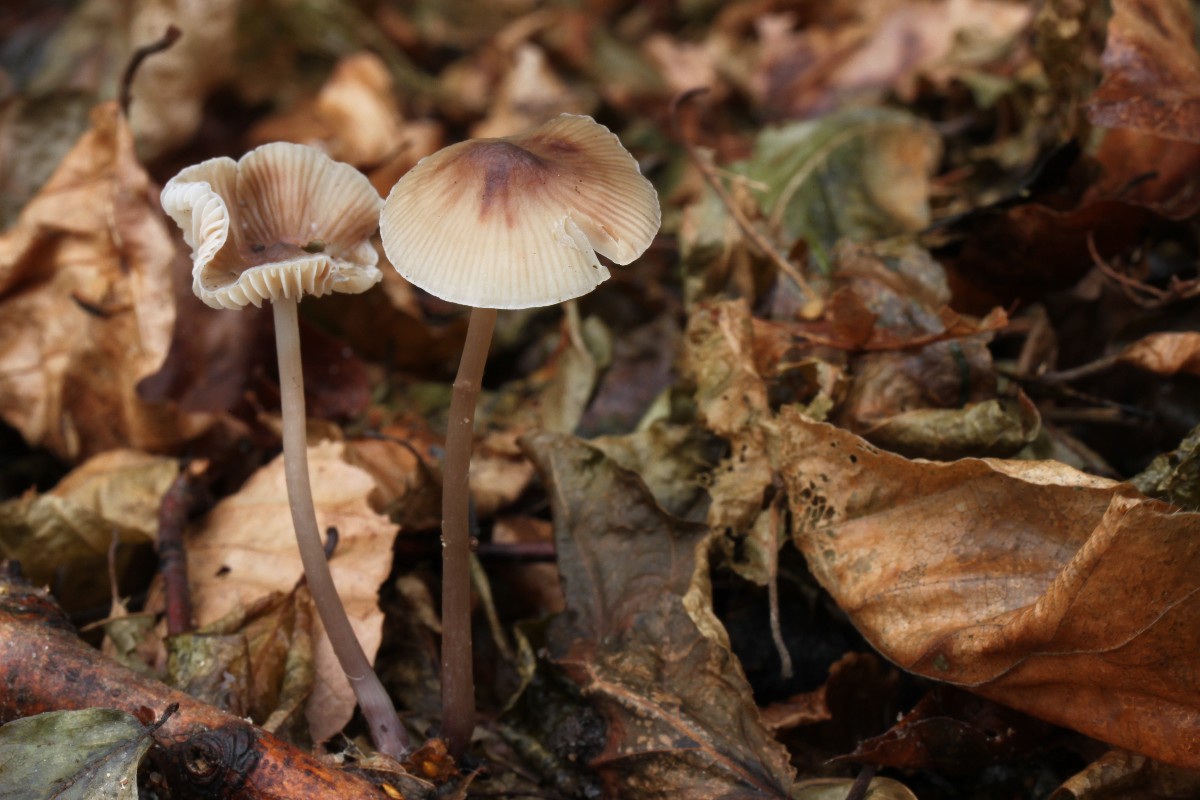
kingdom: Fungi
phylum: Basidiomycota
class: Agaricomycetes
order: Agaricales
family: Mycenaceae
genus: Mycena
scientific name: Mycena polygramma
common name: mangestribet huesvamp
